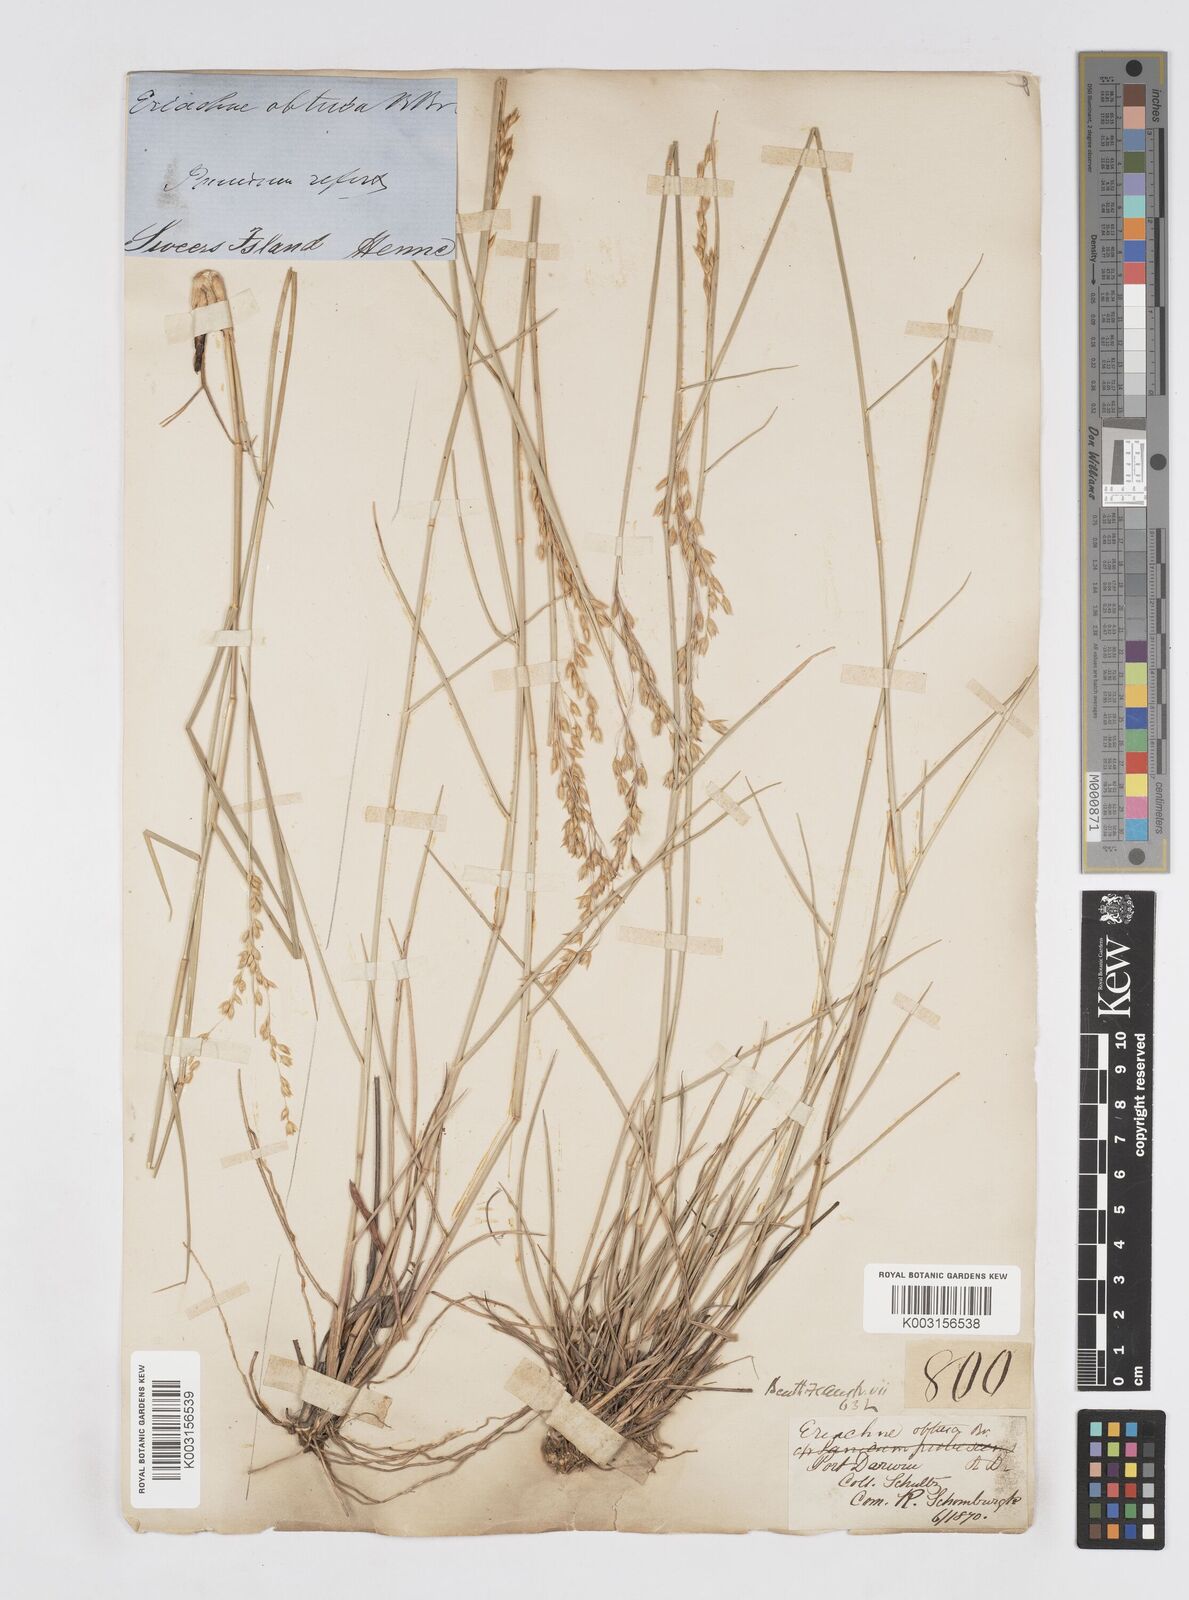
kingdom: Plantae
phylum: Tracheophyta
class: Liliopsida
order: Poales
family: Poaceae
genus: Eriachne
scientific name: Eriachne obtusa
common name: Northern wanderrie grass
